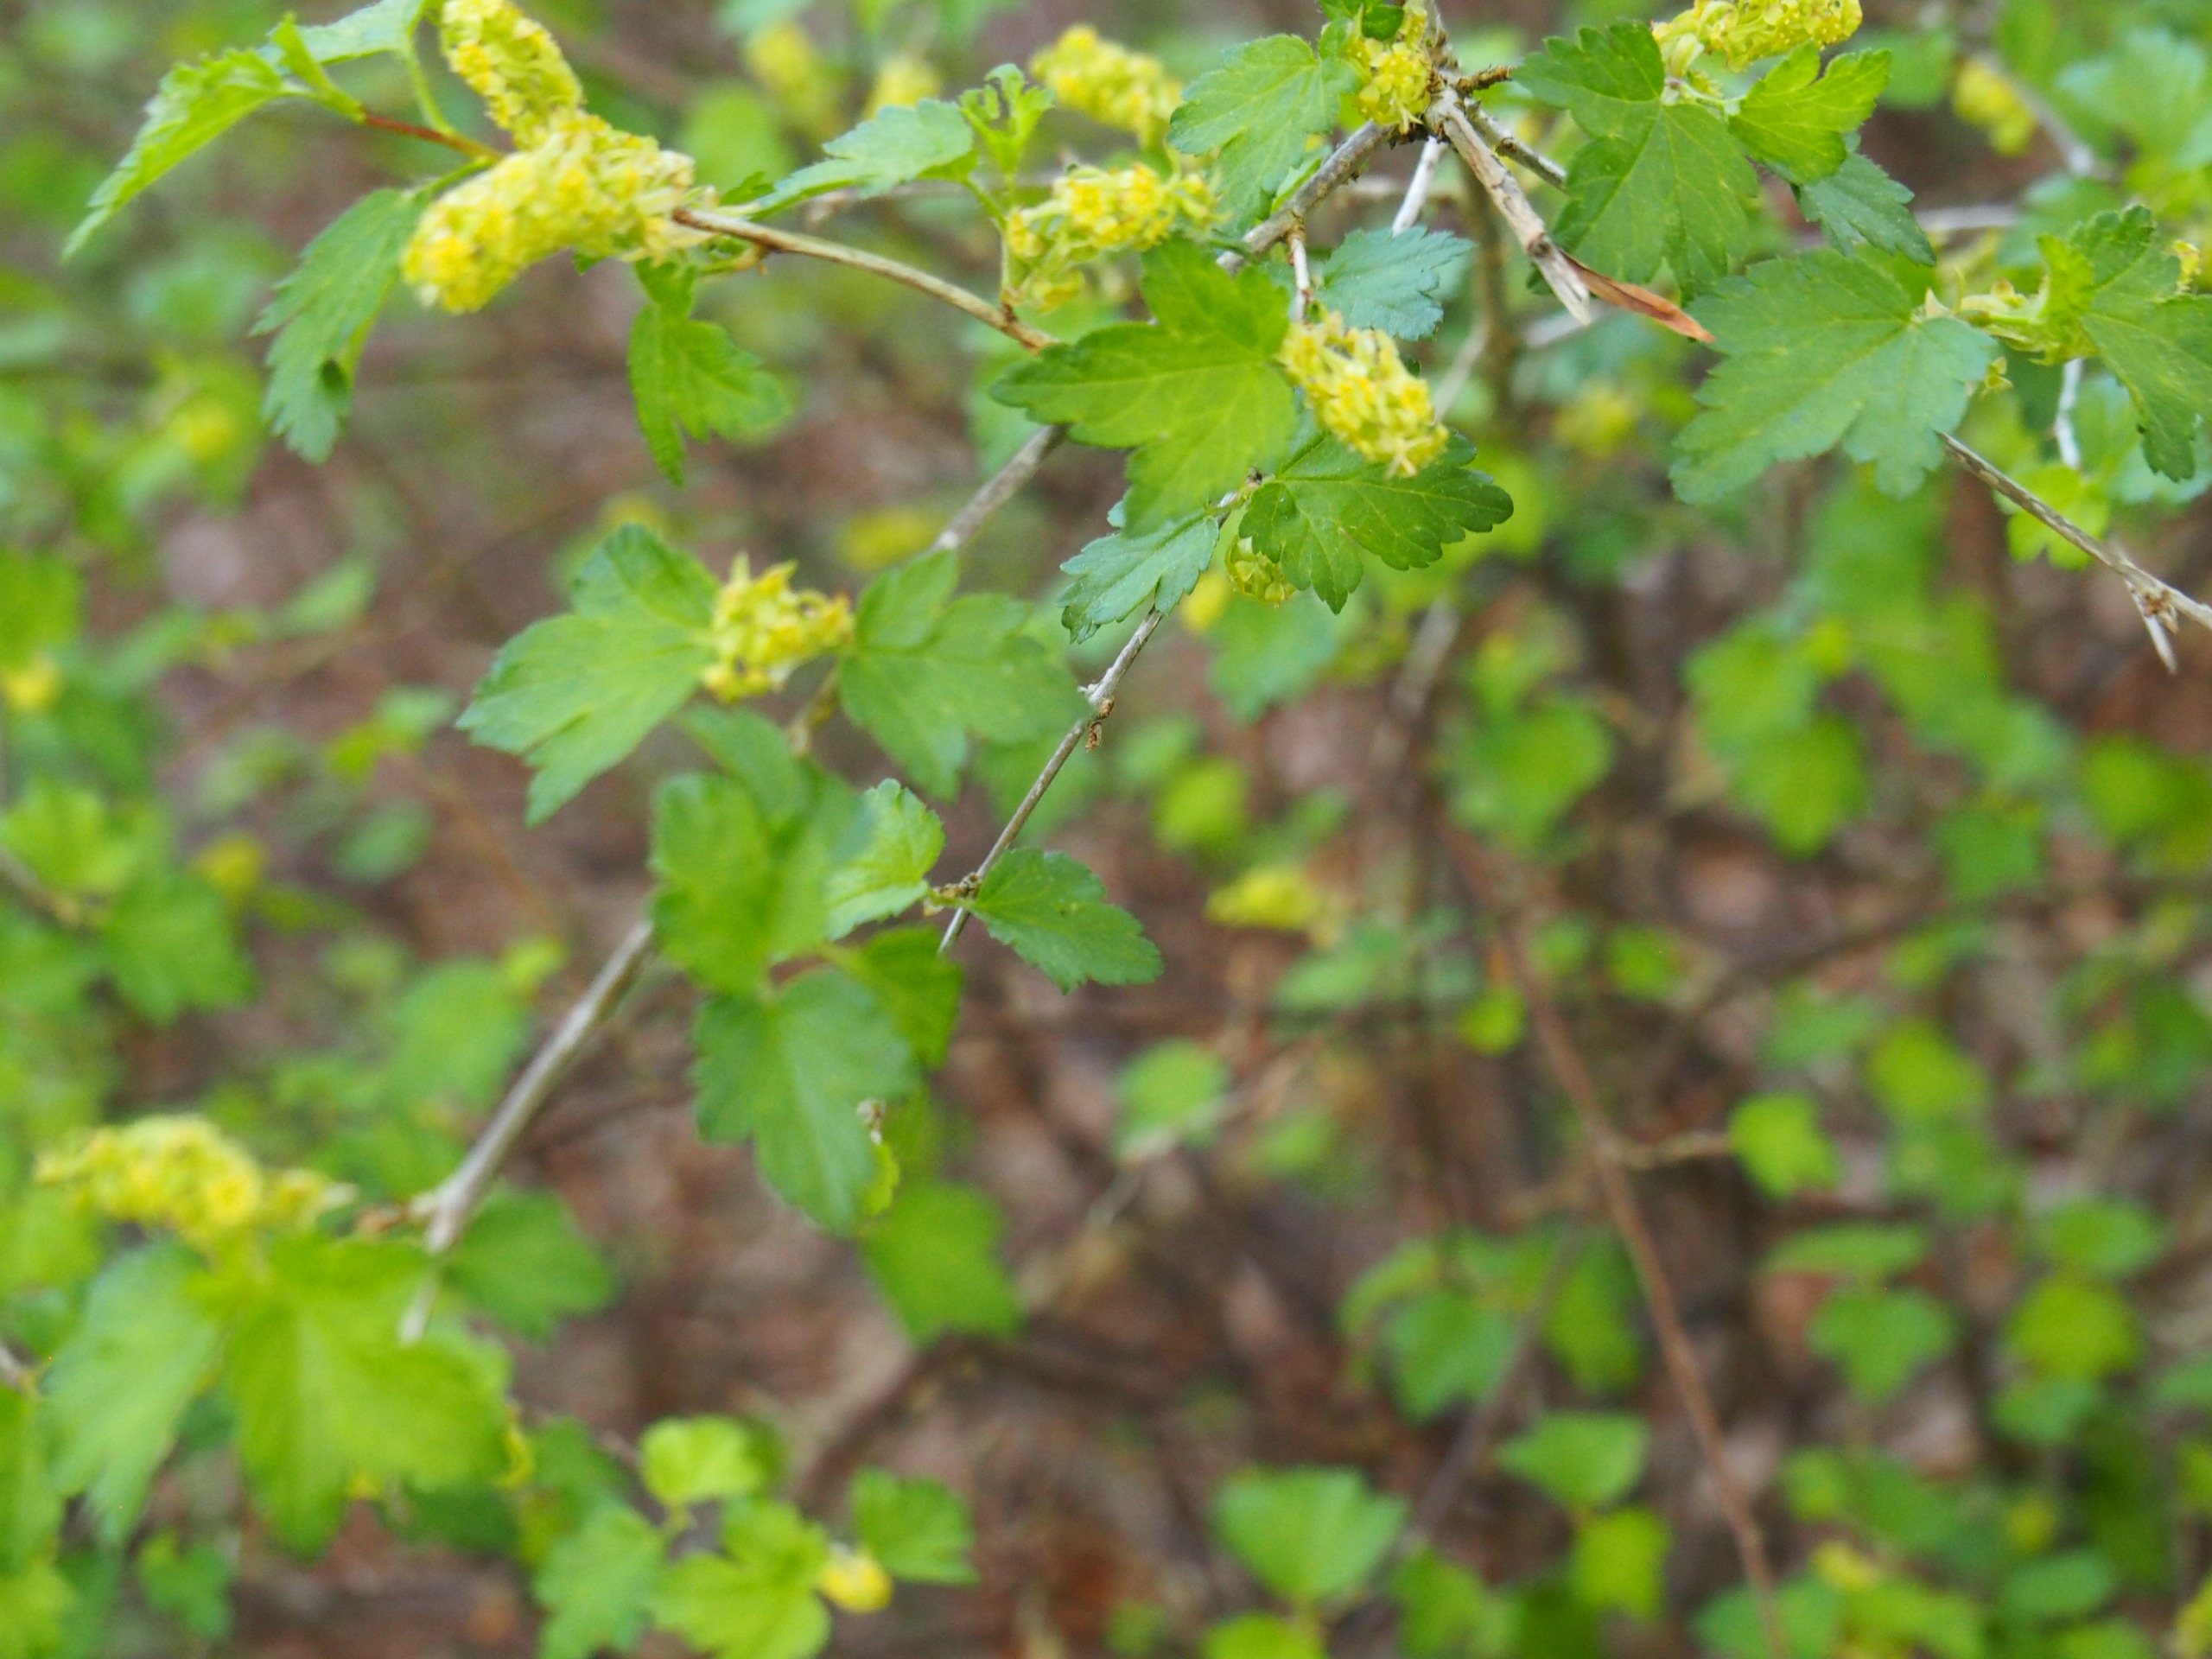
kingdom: Plantae
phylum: Tracheophyta
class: Magnoliopsida
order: Saxifragales
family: Grossulariaceae
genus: Ribes
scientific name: Ribes alpinum
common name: Fjeld-ribs
